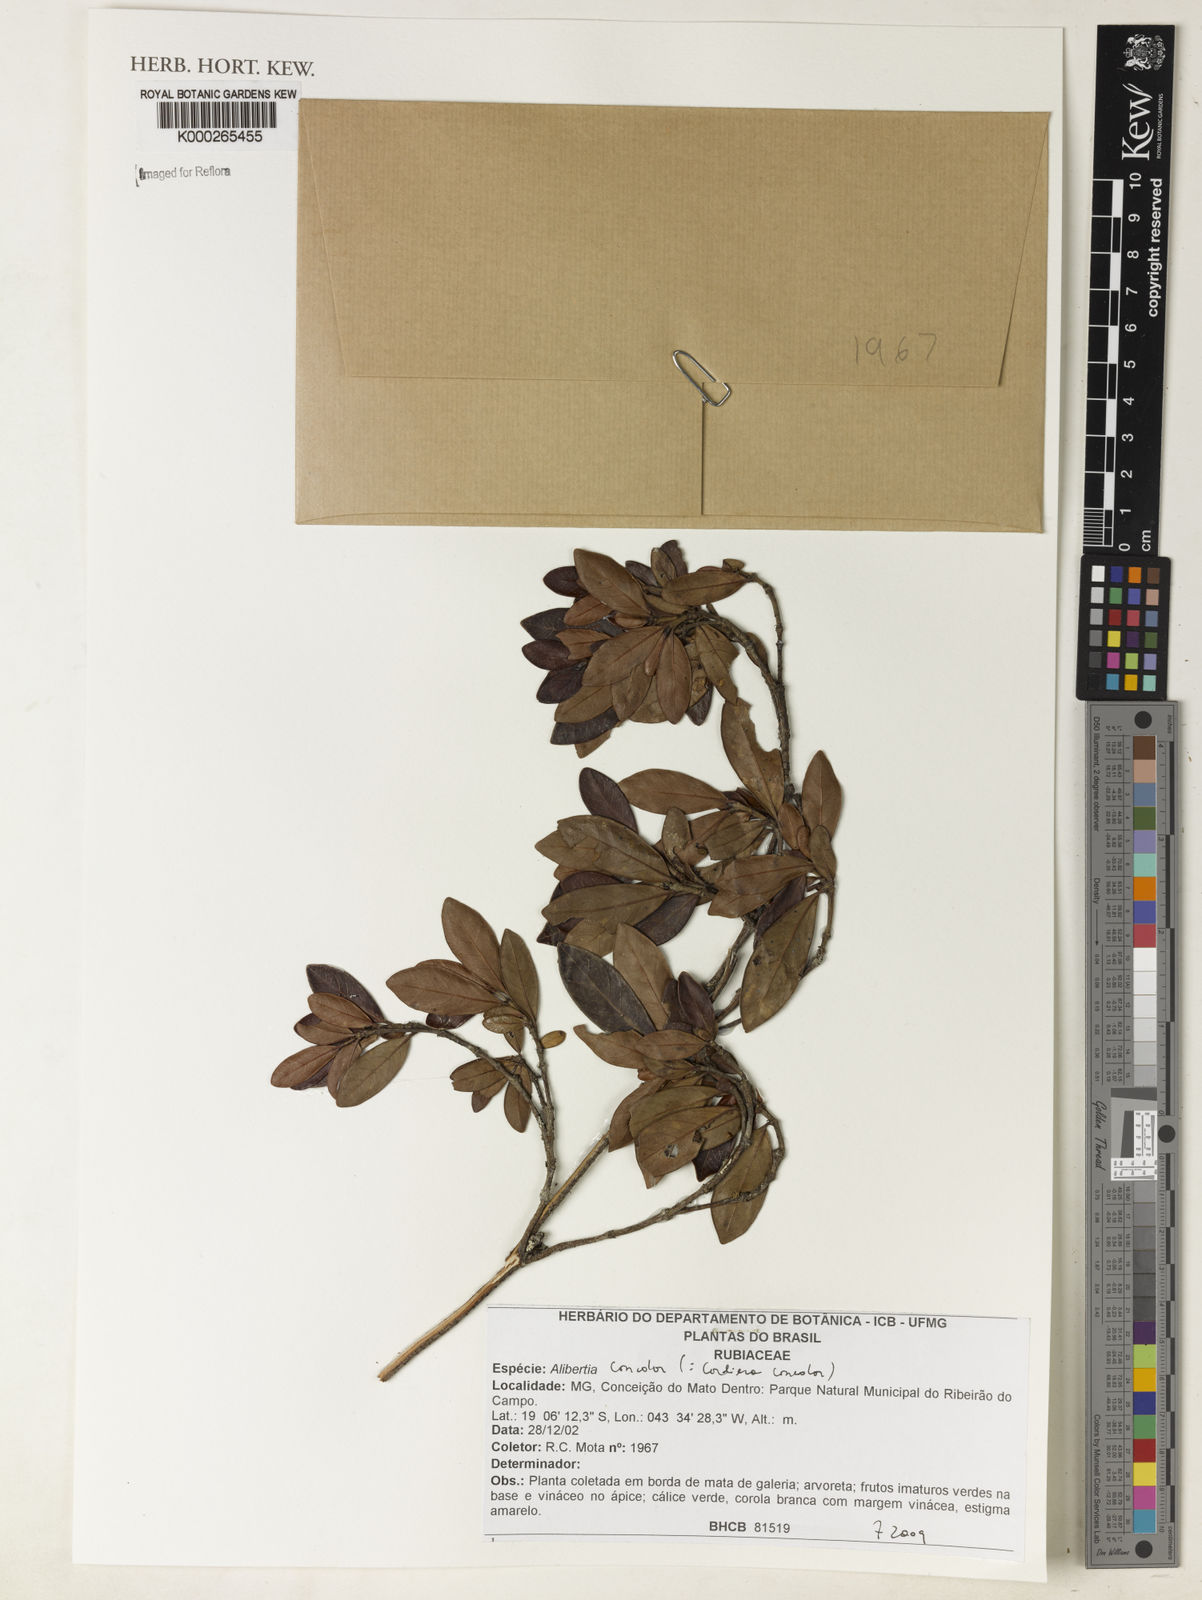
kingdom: Plantae
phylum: Tracheophyta
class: Magnoliopsida
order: Gentianales
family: Rubiaceae
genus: Cordiera
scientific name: Cordiera concolor
